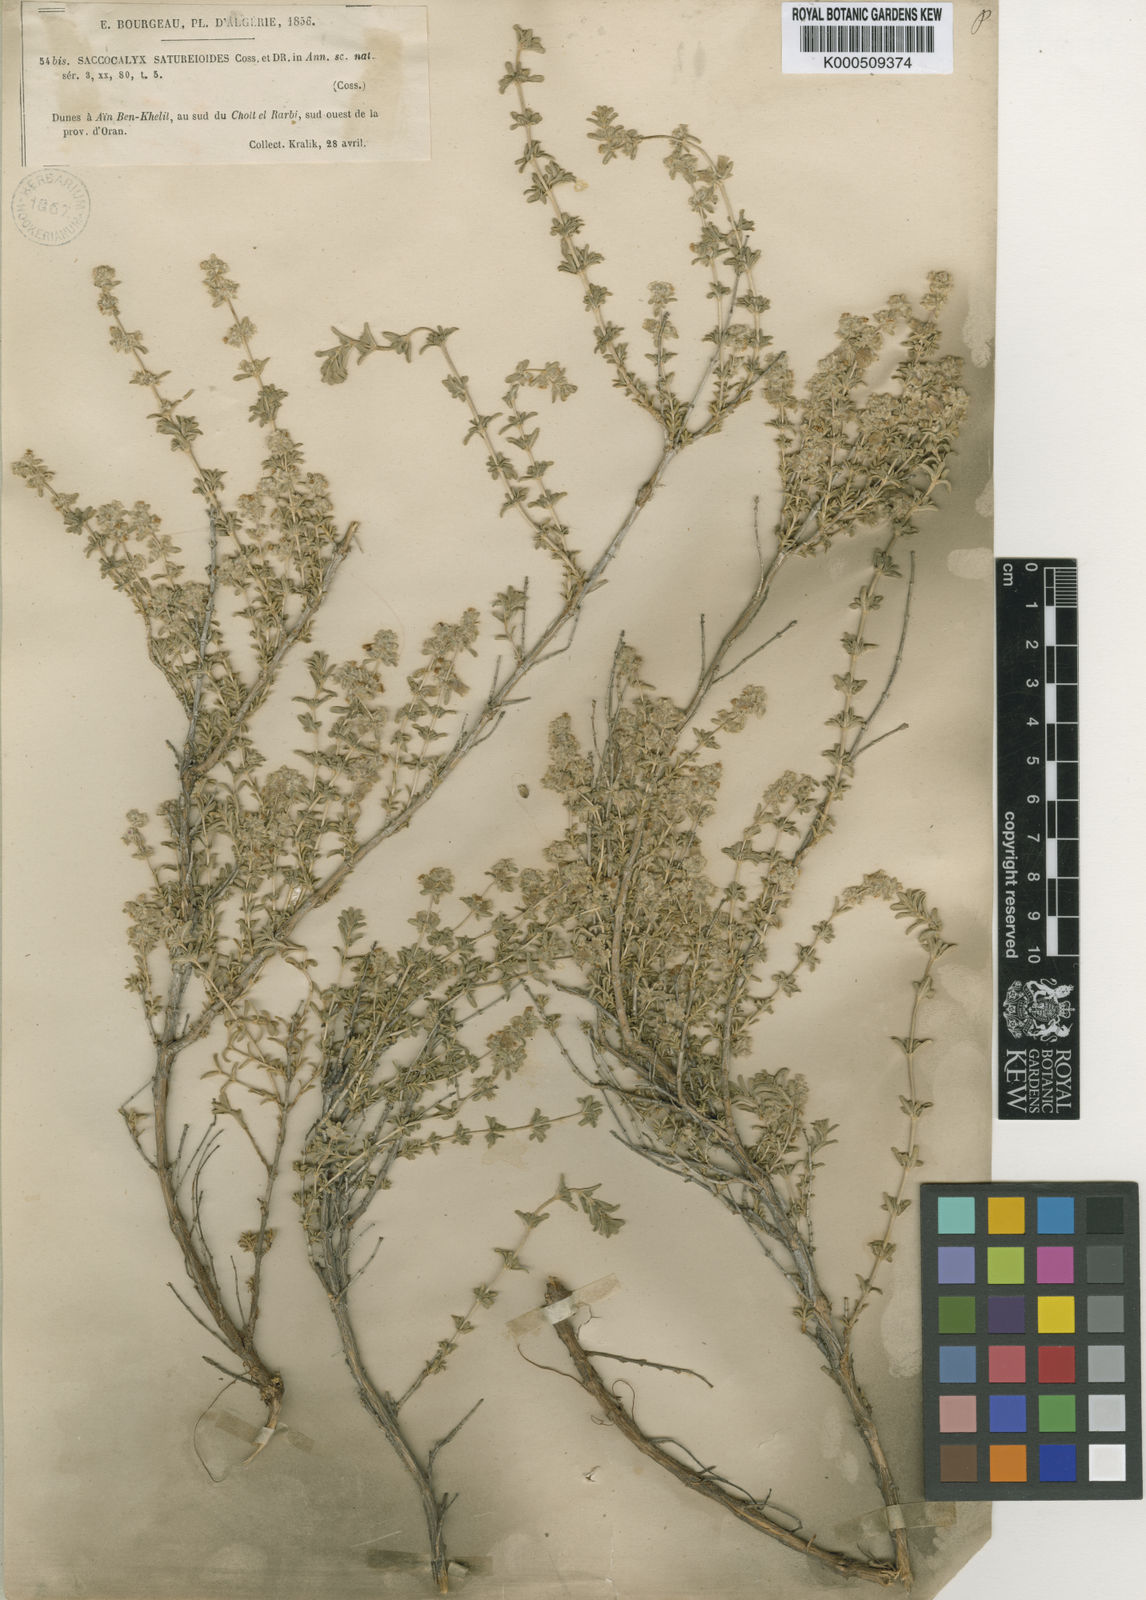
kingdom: Plantae
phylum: Tracheophyta
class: Magnoliopsida
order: Lamiales
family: Lamiaceae
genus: Saccocalyx
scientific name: Saccocalyx saturejoides
